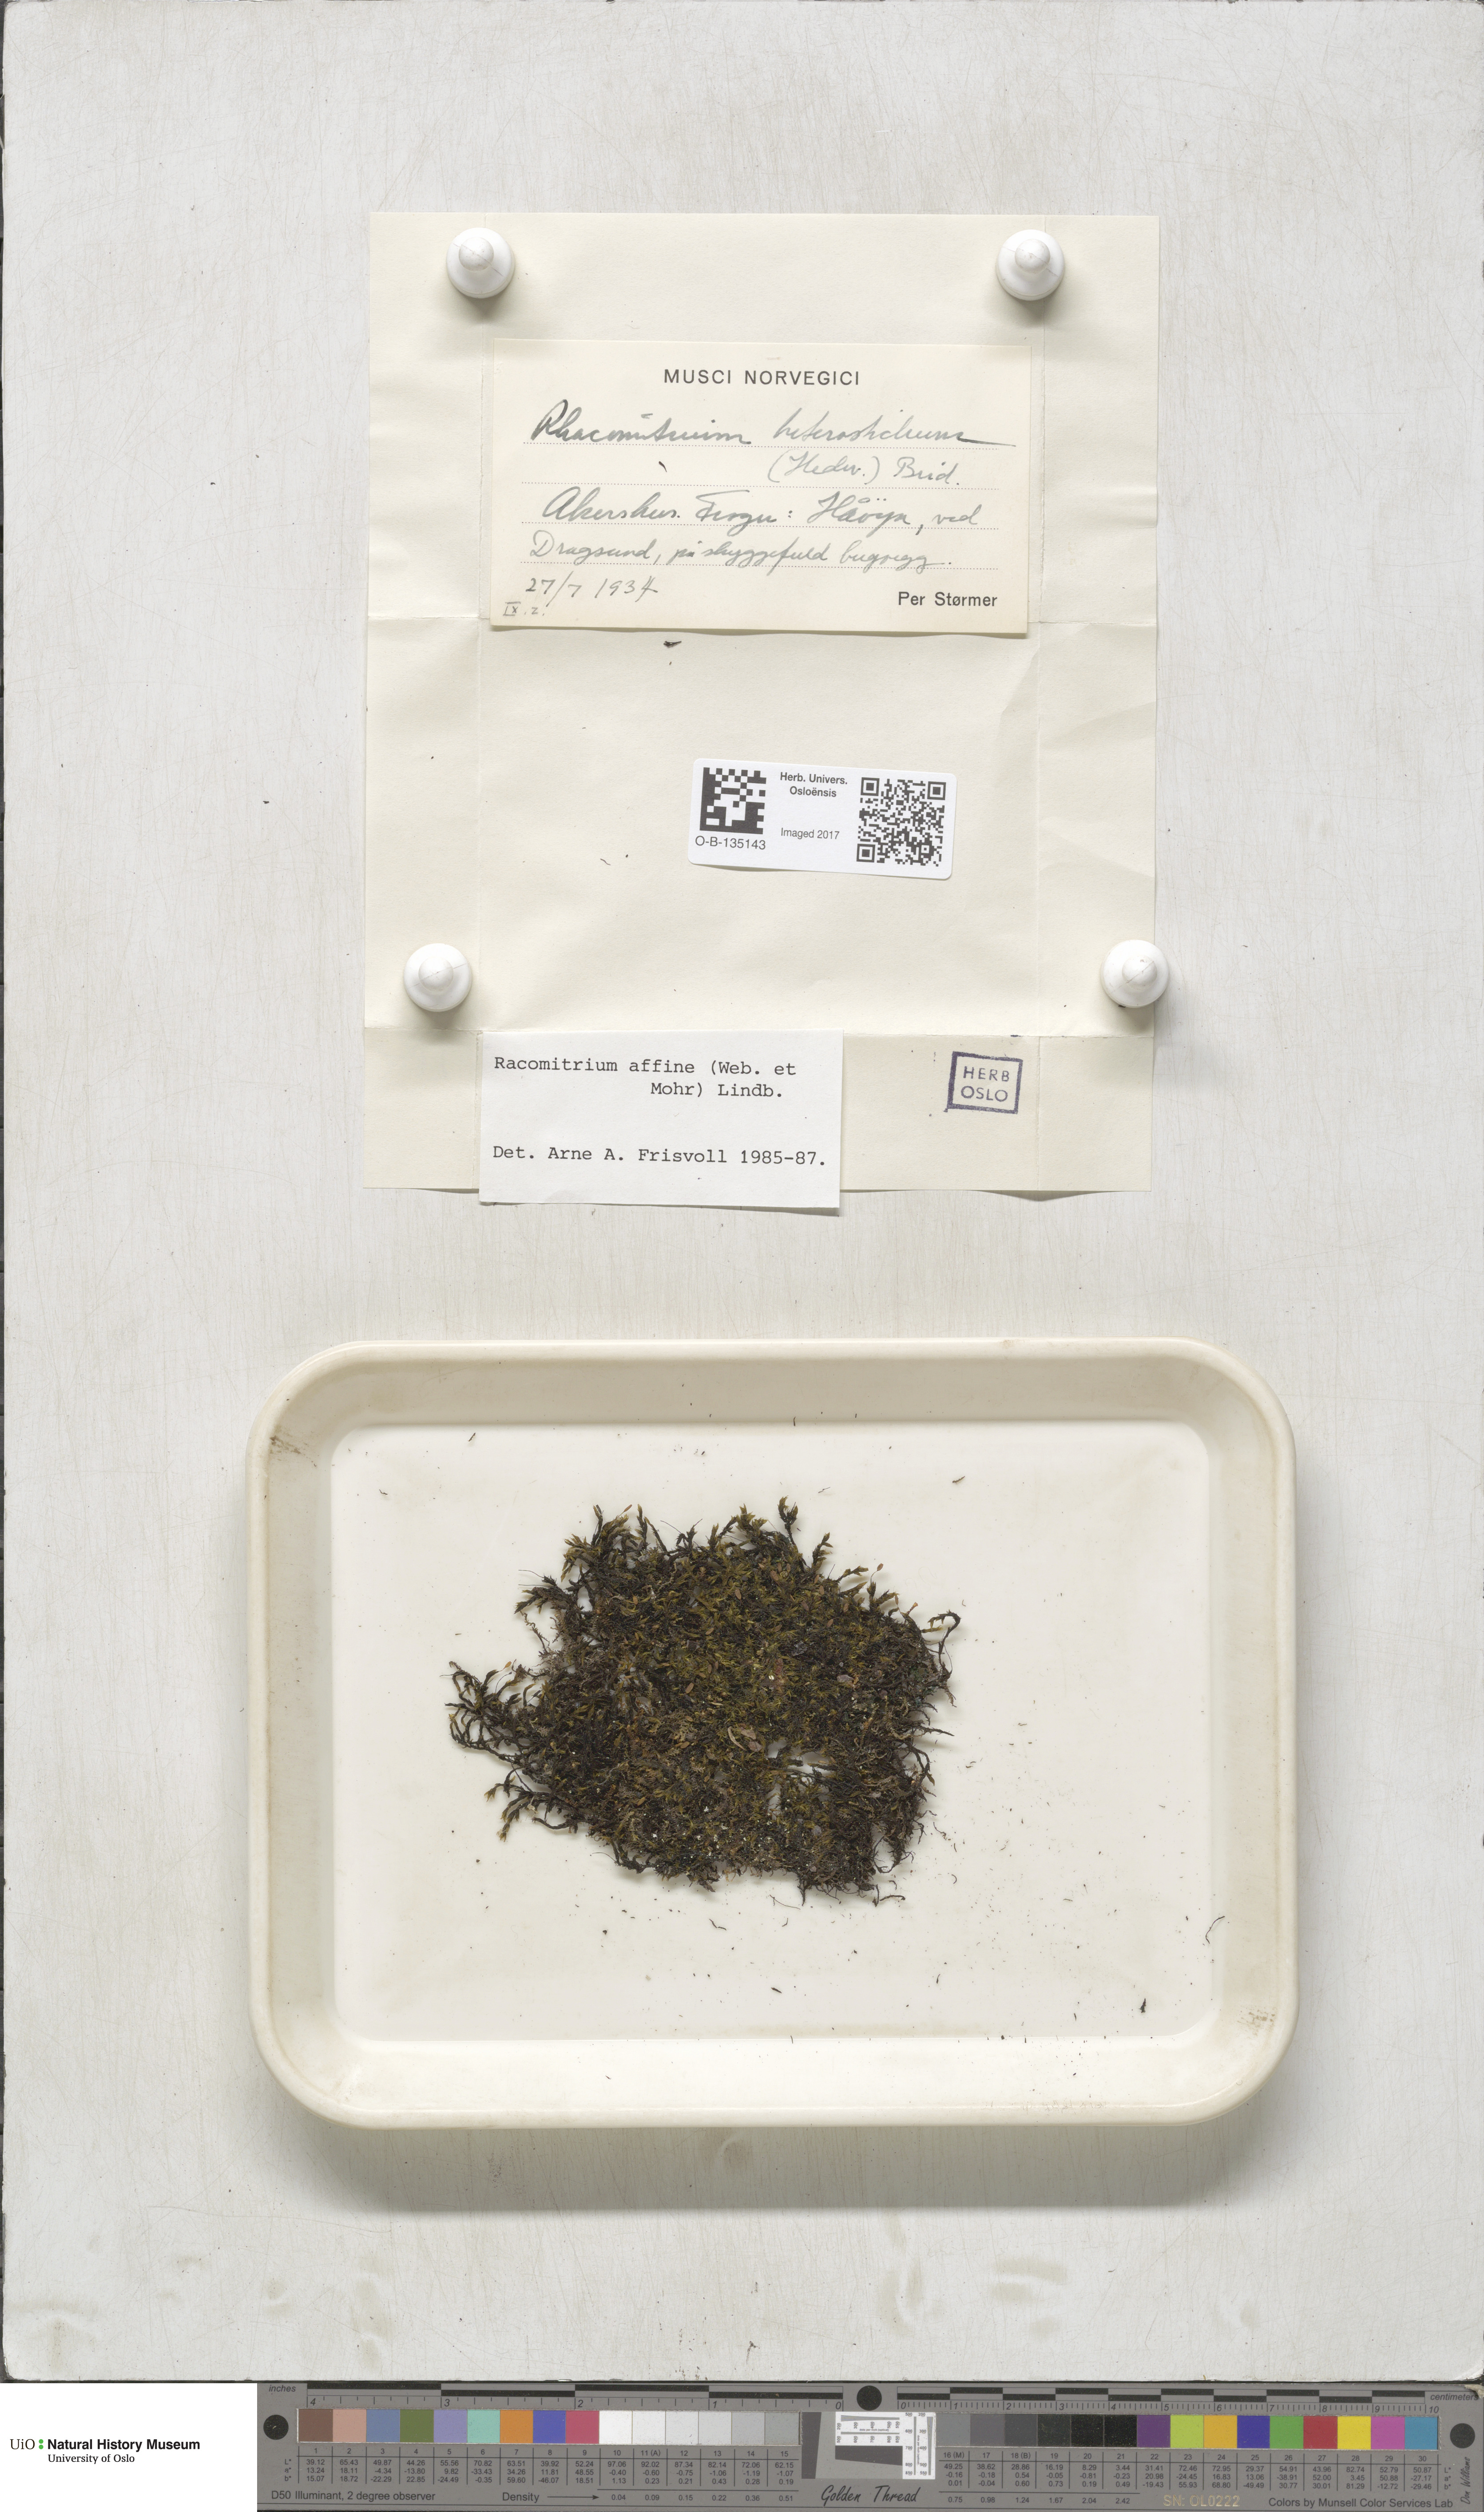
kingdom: Plantae
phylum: Bryophyta
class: Bryopsida
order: Grimmiales
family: Grimmiaceae
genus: Bucklandiella
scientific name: Bucklandiella affinis
